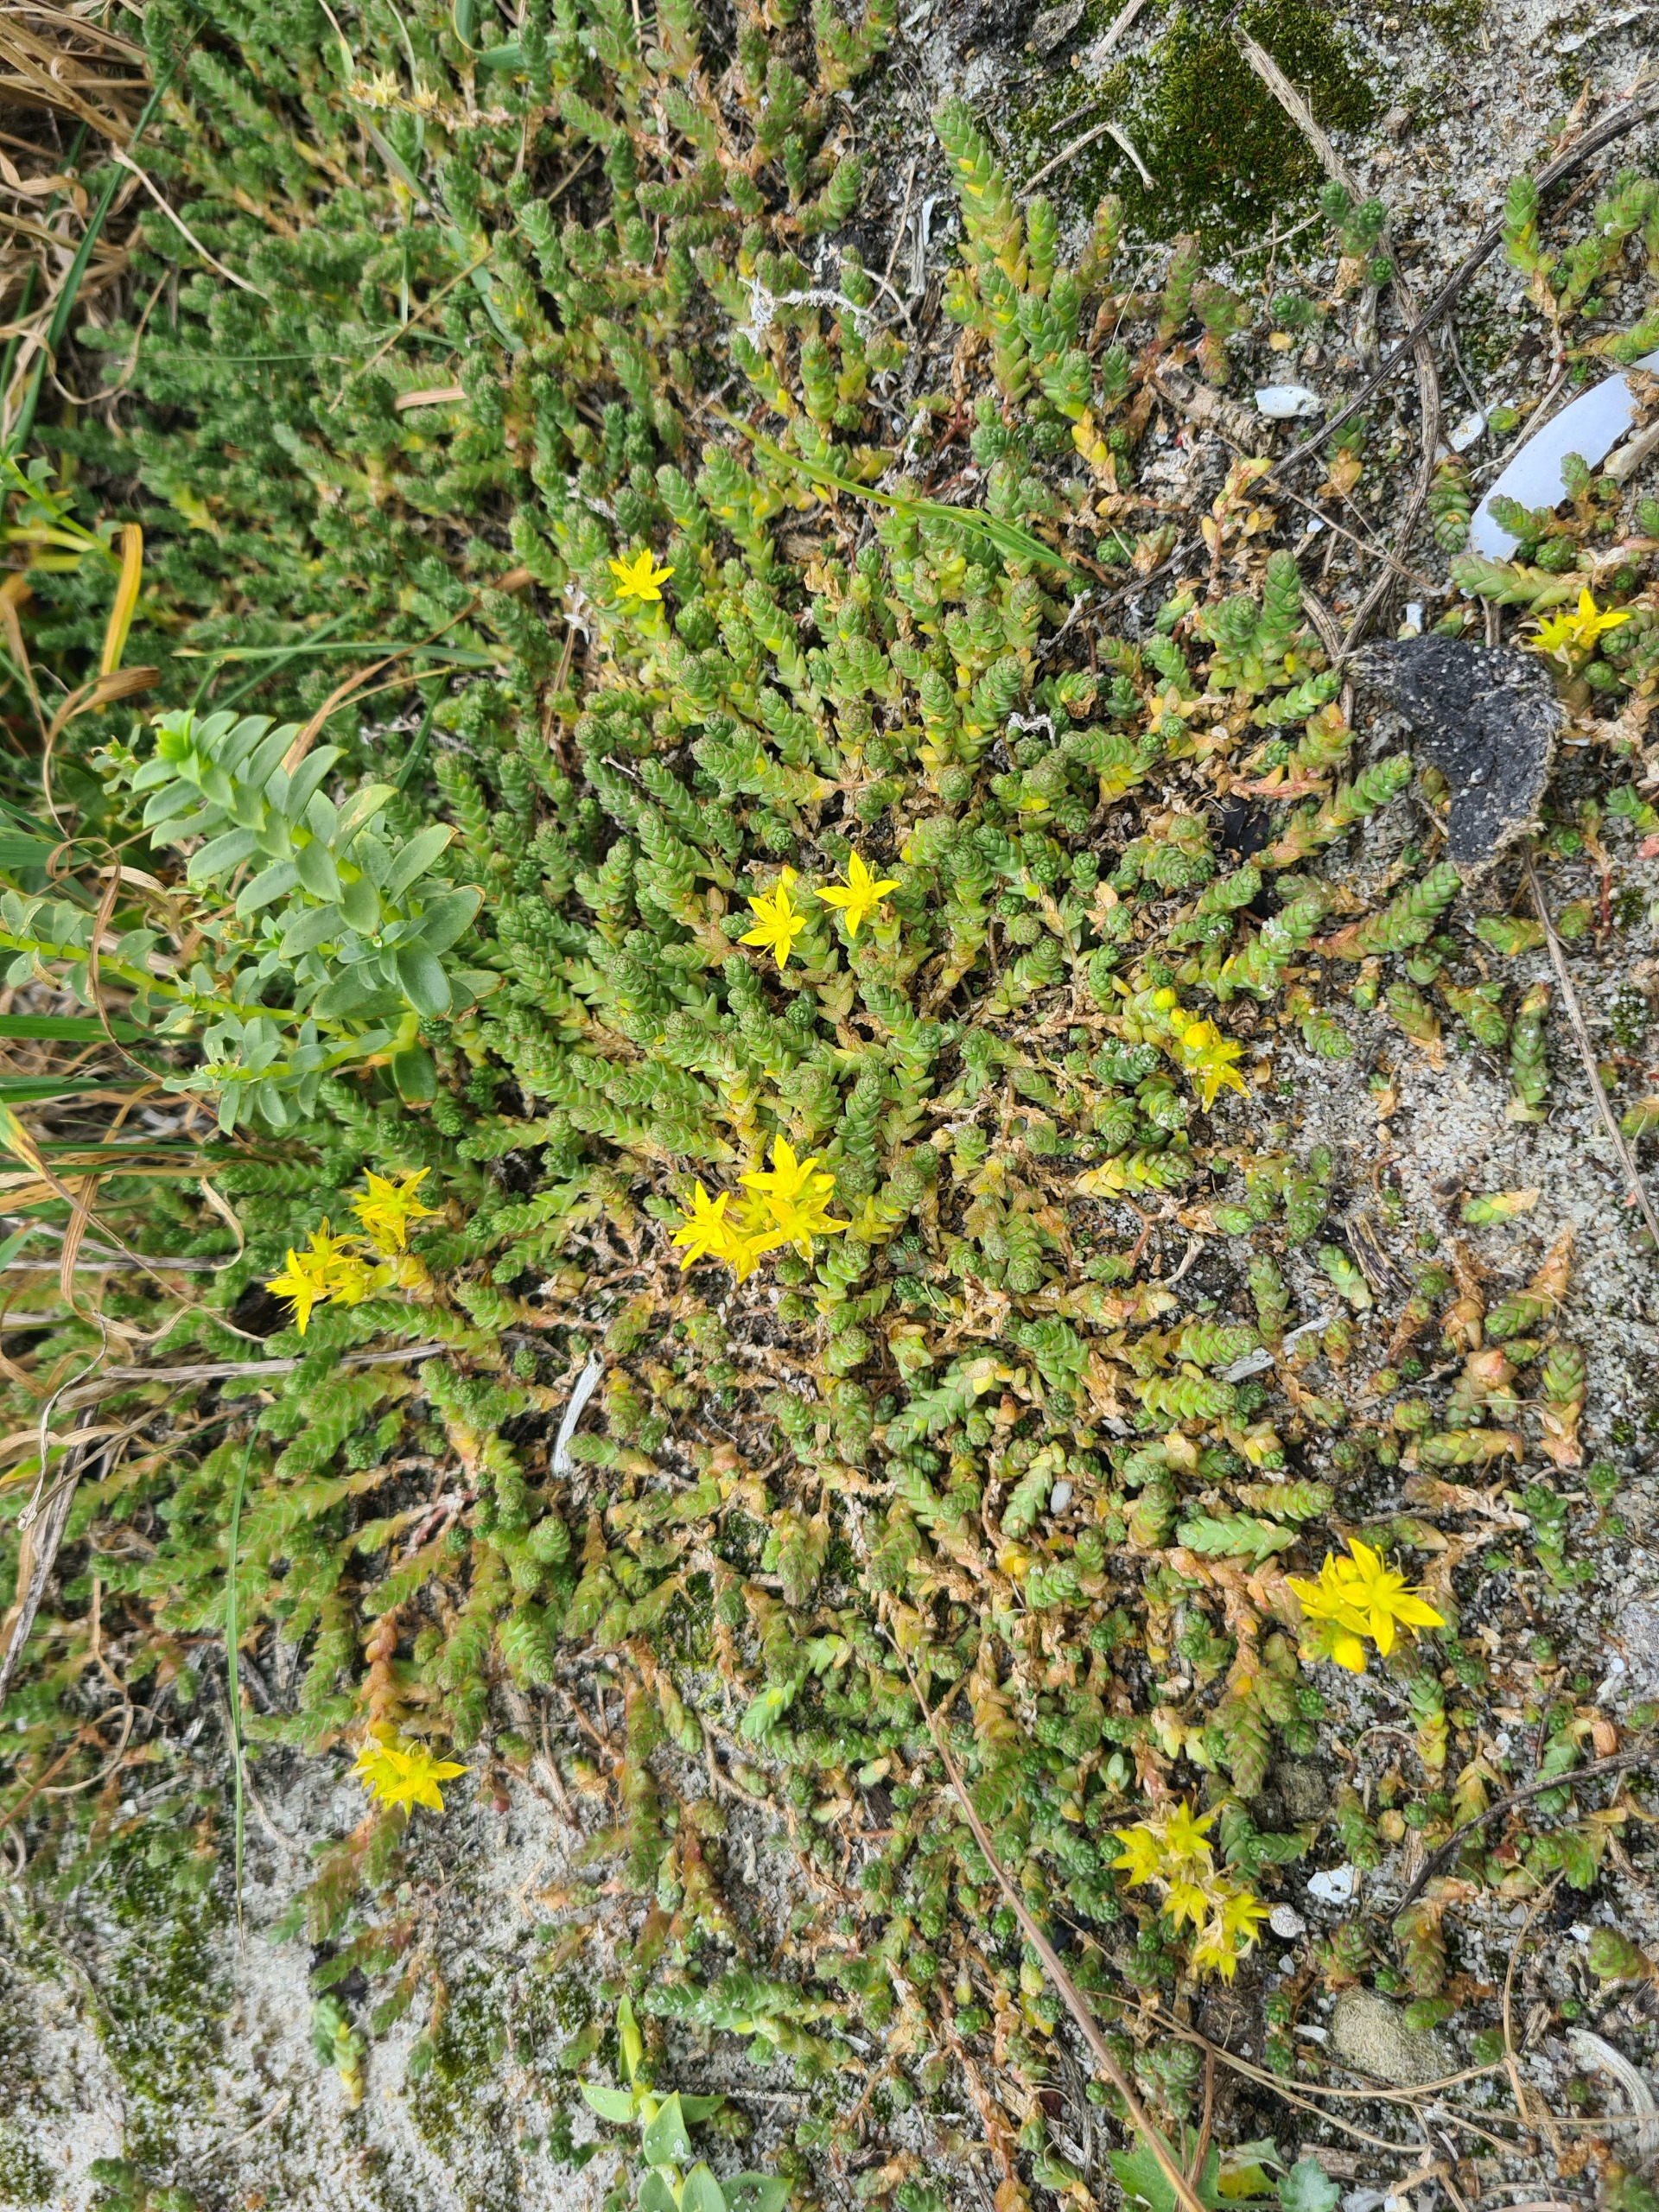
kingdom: Plantae
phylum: Tracheophyta
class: Magnoliopsida
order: Saxifragales
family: Crassulaceae
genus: Sedum
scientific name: Sedum acre
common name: Bidende stenurt
